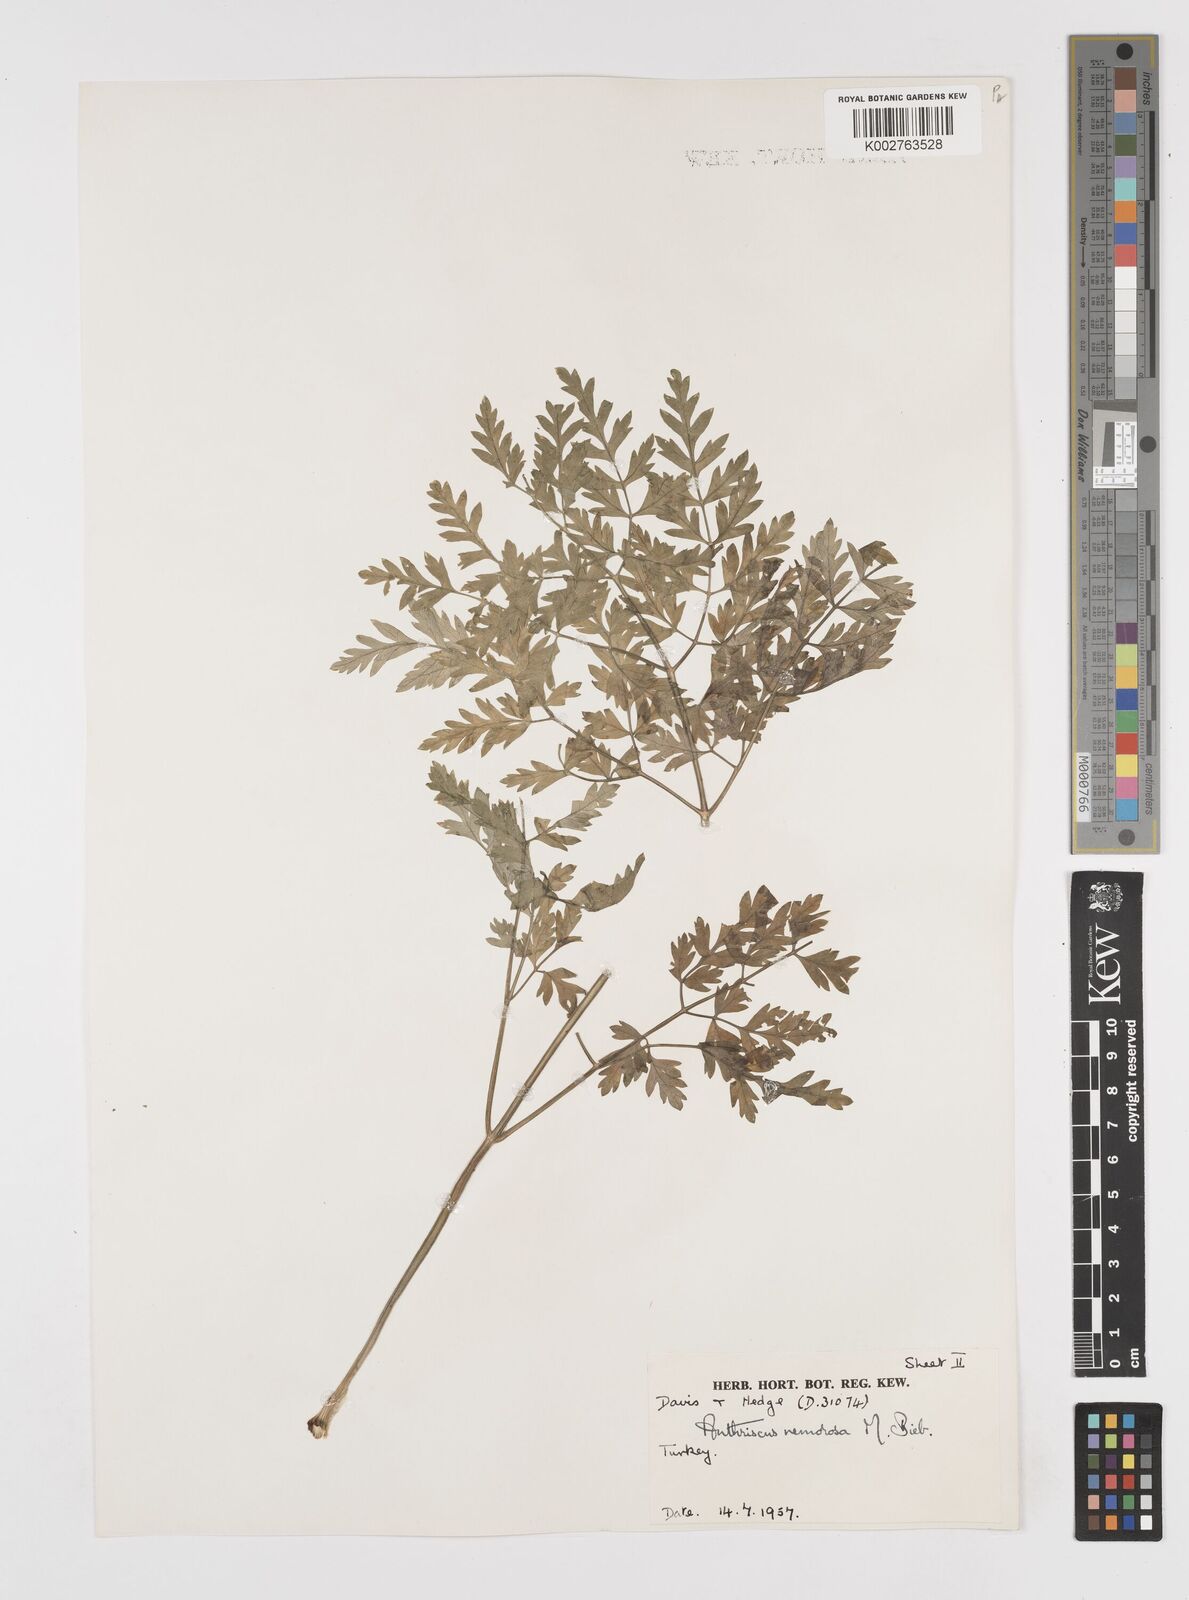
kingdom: Plantae
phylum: Tracheophyta
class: Magnoliopsida
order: Apiales
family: Apiaceae
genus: Anthriscus
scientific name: Anthriscus sylvestris
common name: Cow parsley
